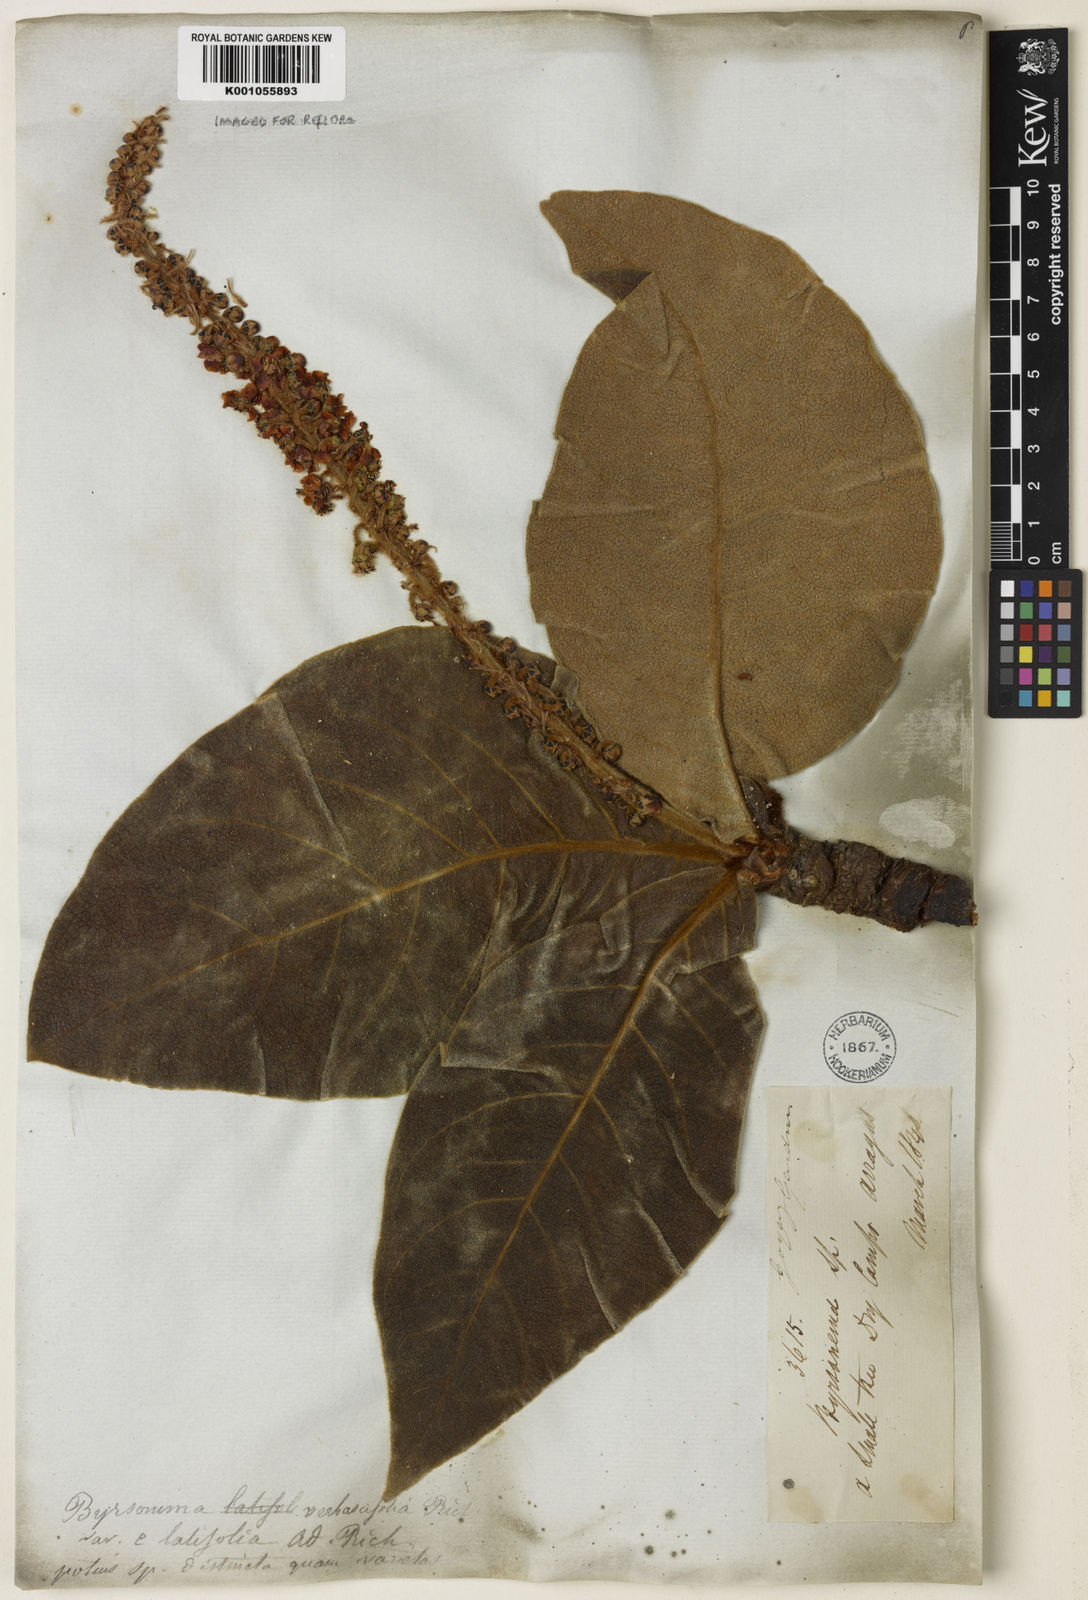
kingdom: Plantae
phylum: Tracheophyta
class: Magnoliopsida
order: Malpighiales
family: Malpighiaceae
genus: Byrsonima
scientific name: Byrsonima verbascifolia
